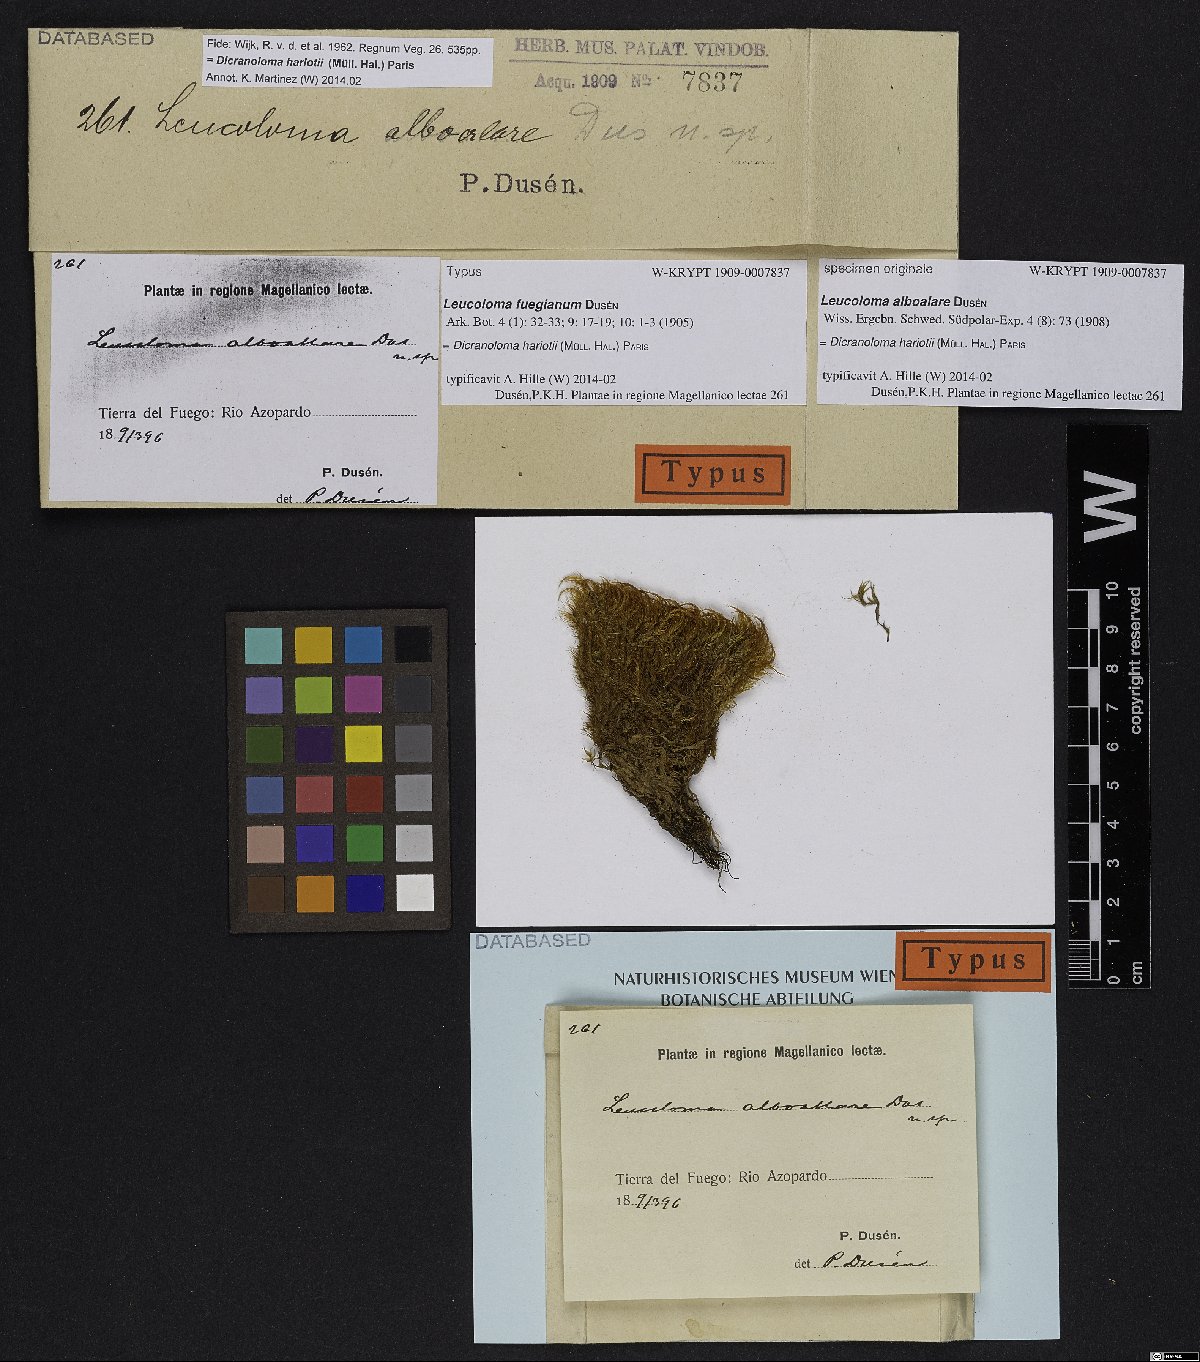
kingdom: Plantae
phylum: Bryophyta
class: Bryopsida
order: Dicranales
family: Dicranaceae
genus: Dicranoloma
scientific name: Dicranoloma hariotii
